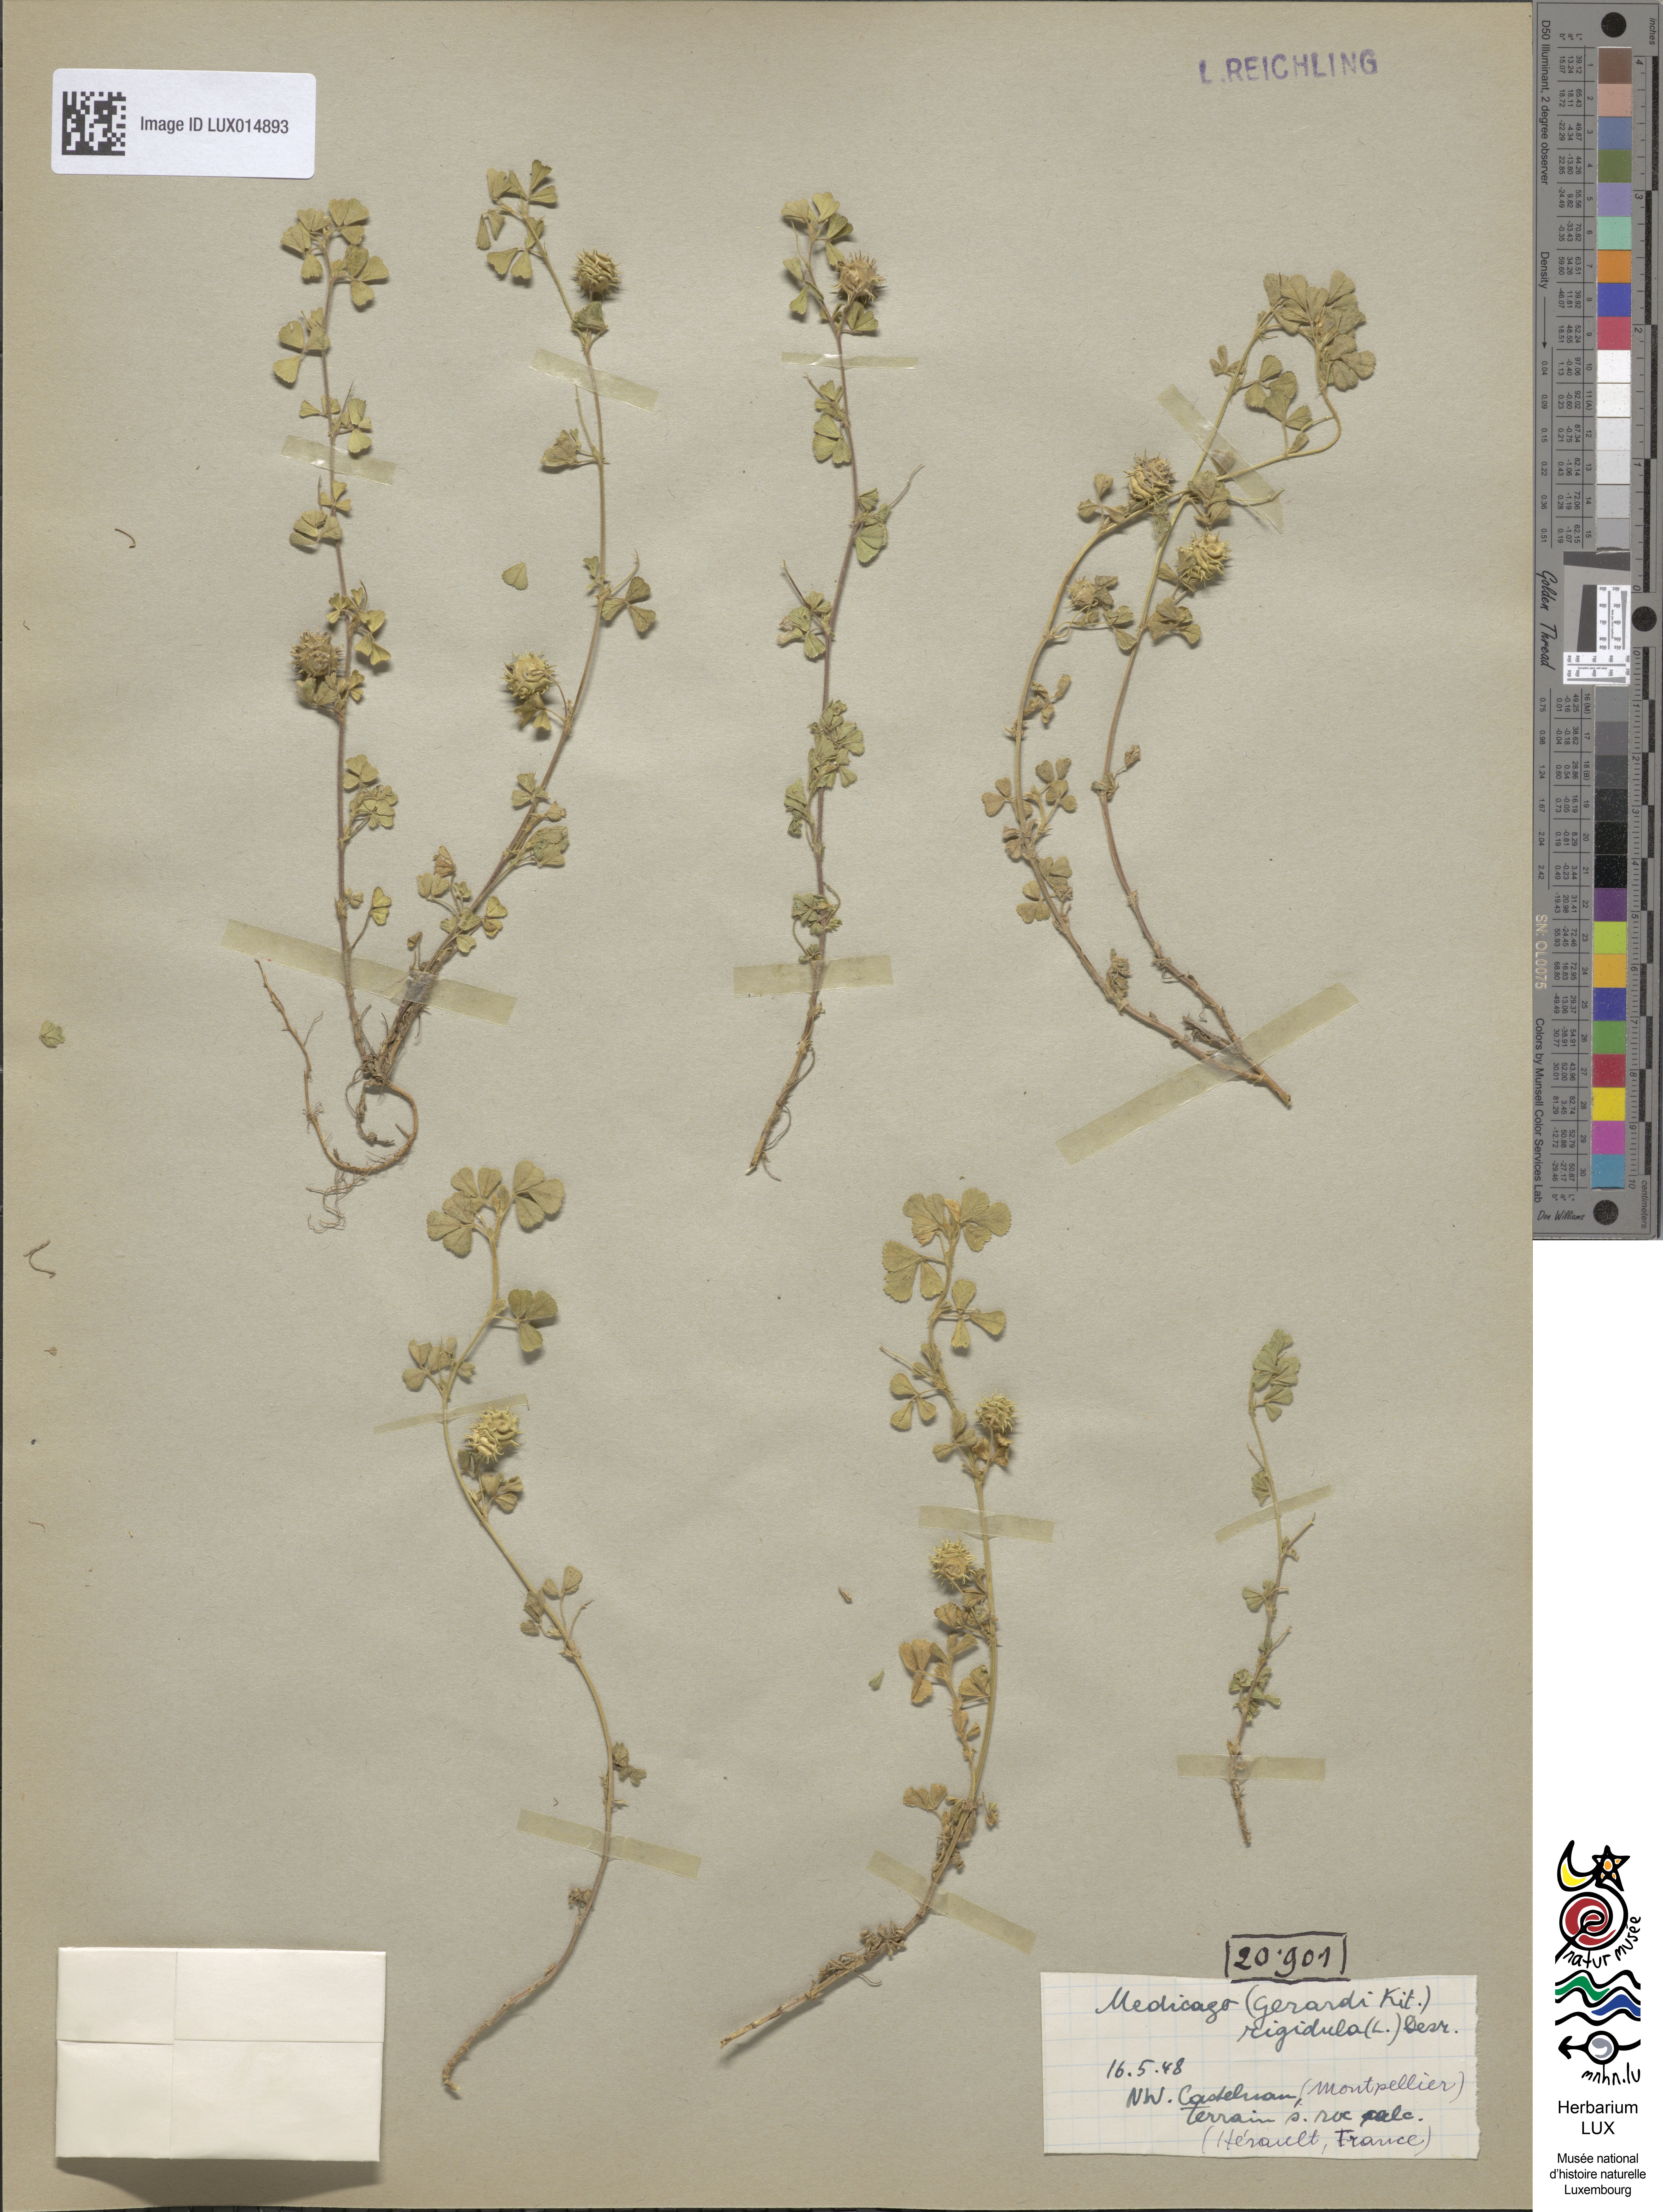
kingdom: Plantae
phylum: Tracheophyta
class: Magnoliopsida
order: Fabales
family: Fabaceae
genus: Medicago
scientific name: Medicago rigidula
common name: Tifton medic
